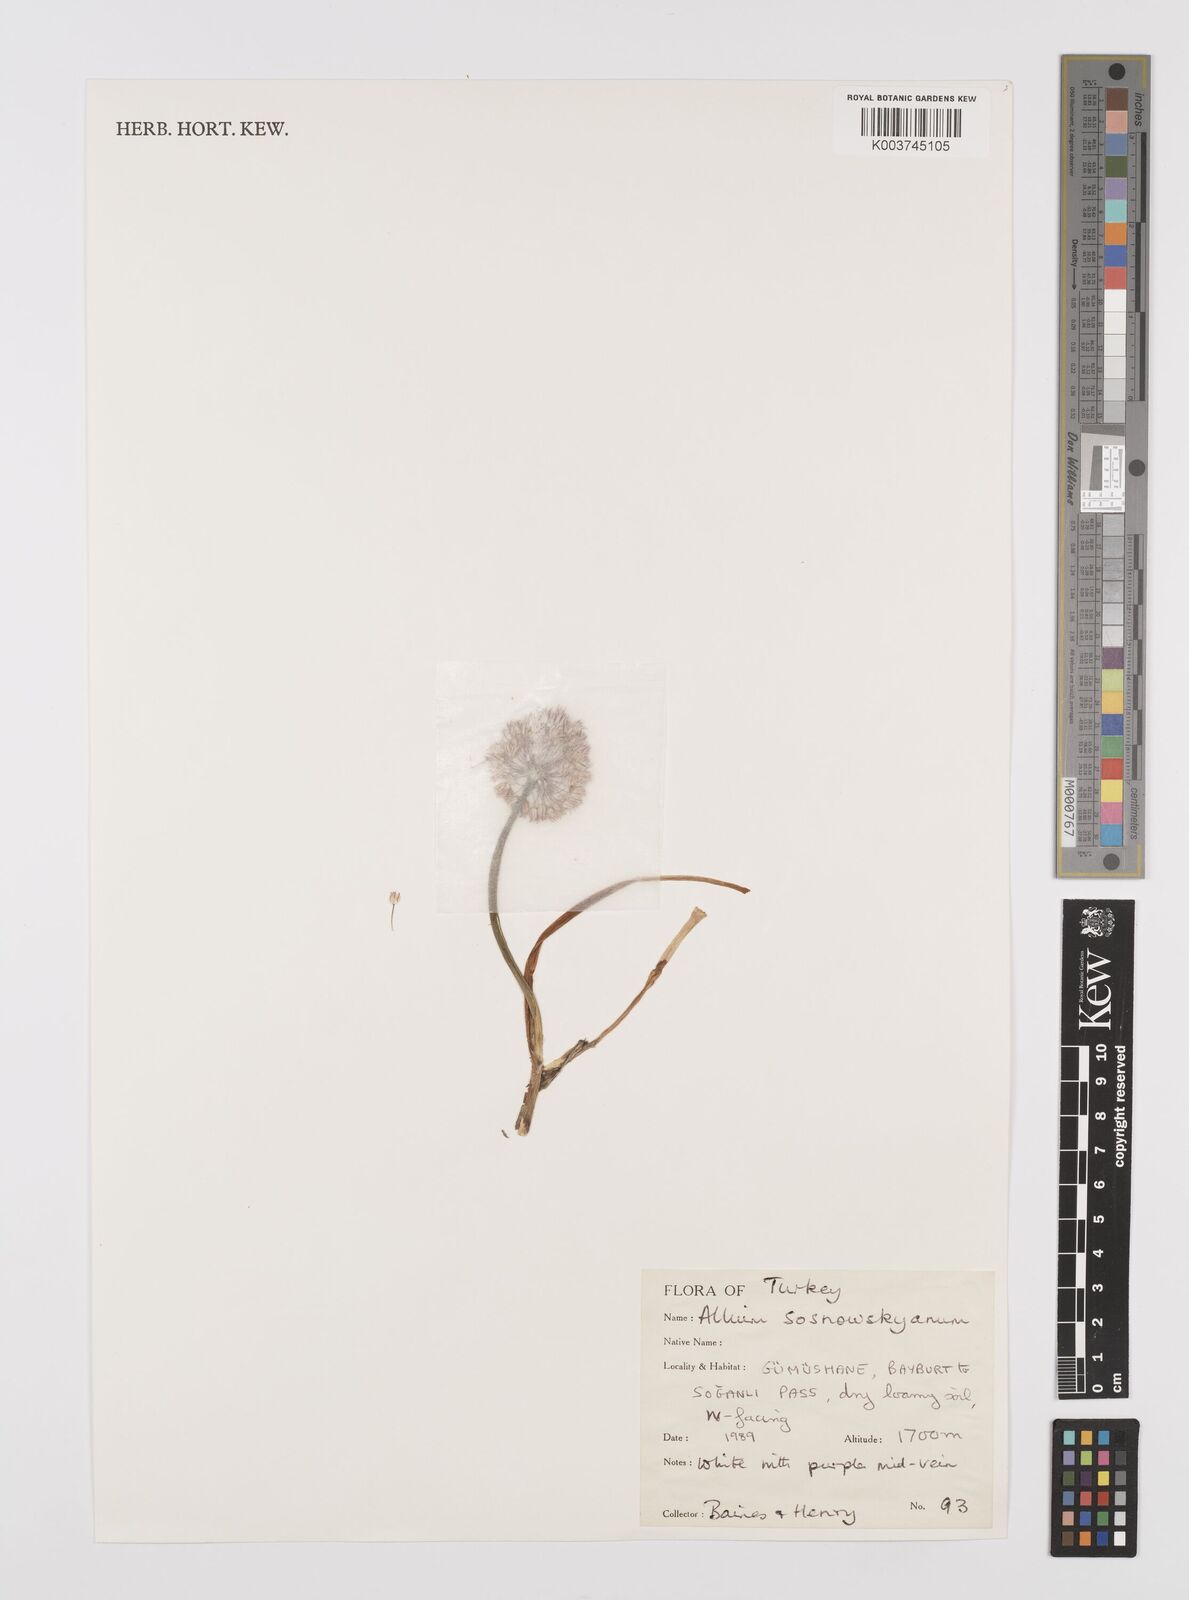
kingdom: Plantae
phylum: Tracheophyta
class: Liliopsida
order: Asparagales
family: Amaryllidaceae
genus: Allium
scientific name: Allium sosnovskyanum
